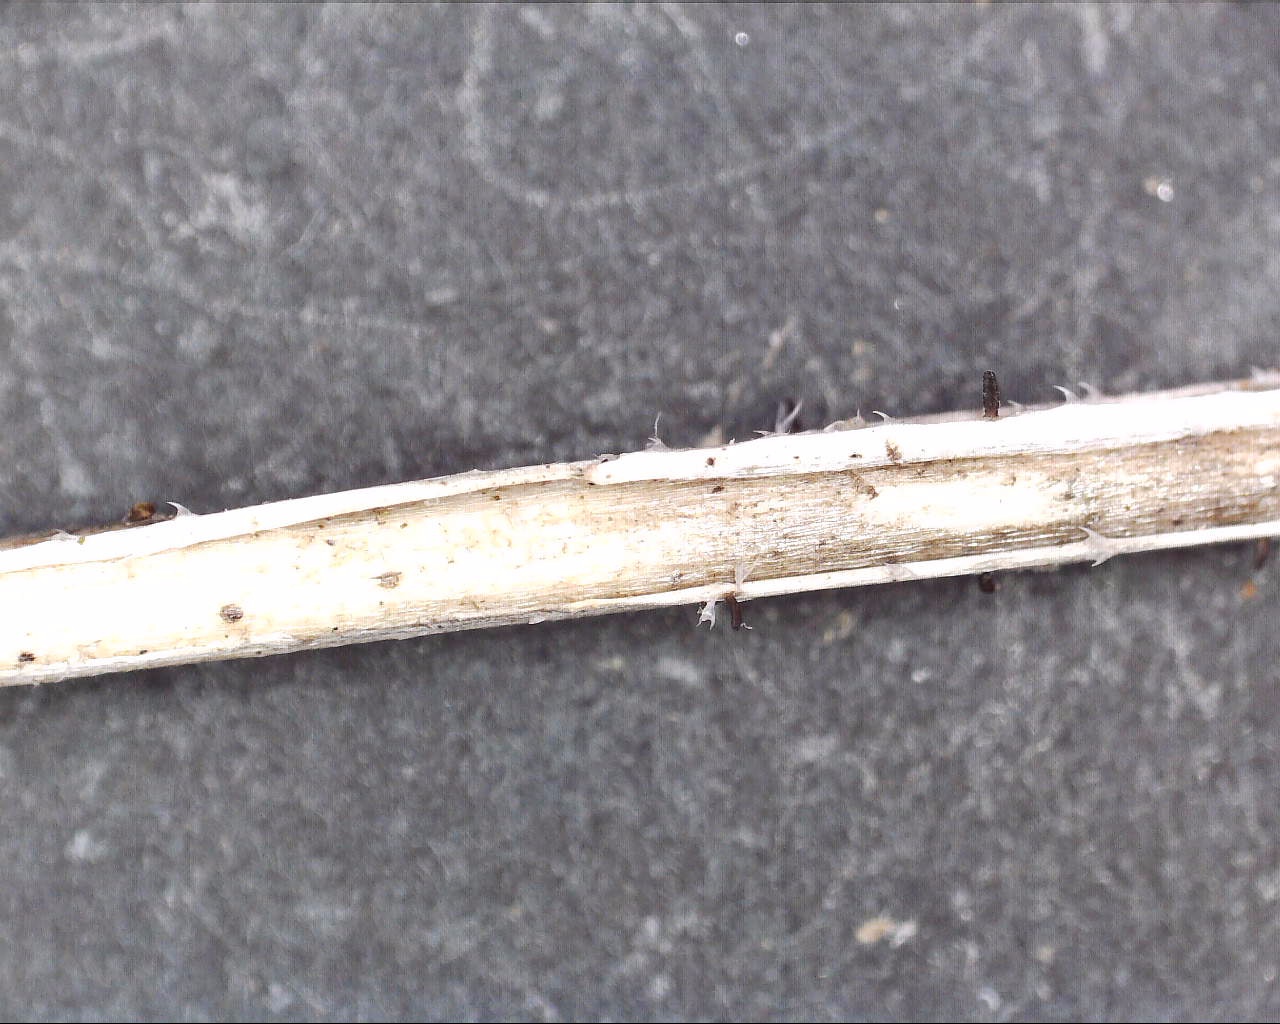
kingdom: Fungi
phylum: Ascomycota
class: Dothideomycetes
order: Acrospermales
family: Acrospermaceae
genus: Acrospermum
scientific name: Acrospermum pallidulum
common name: snerre-stængeltunge
